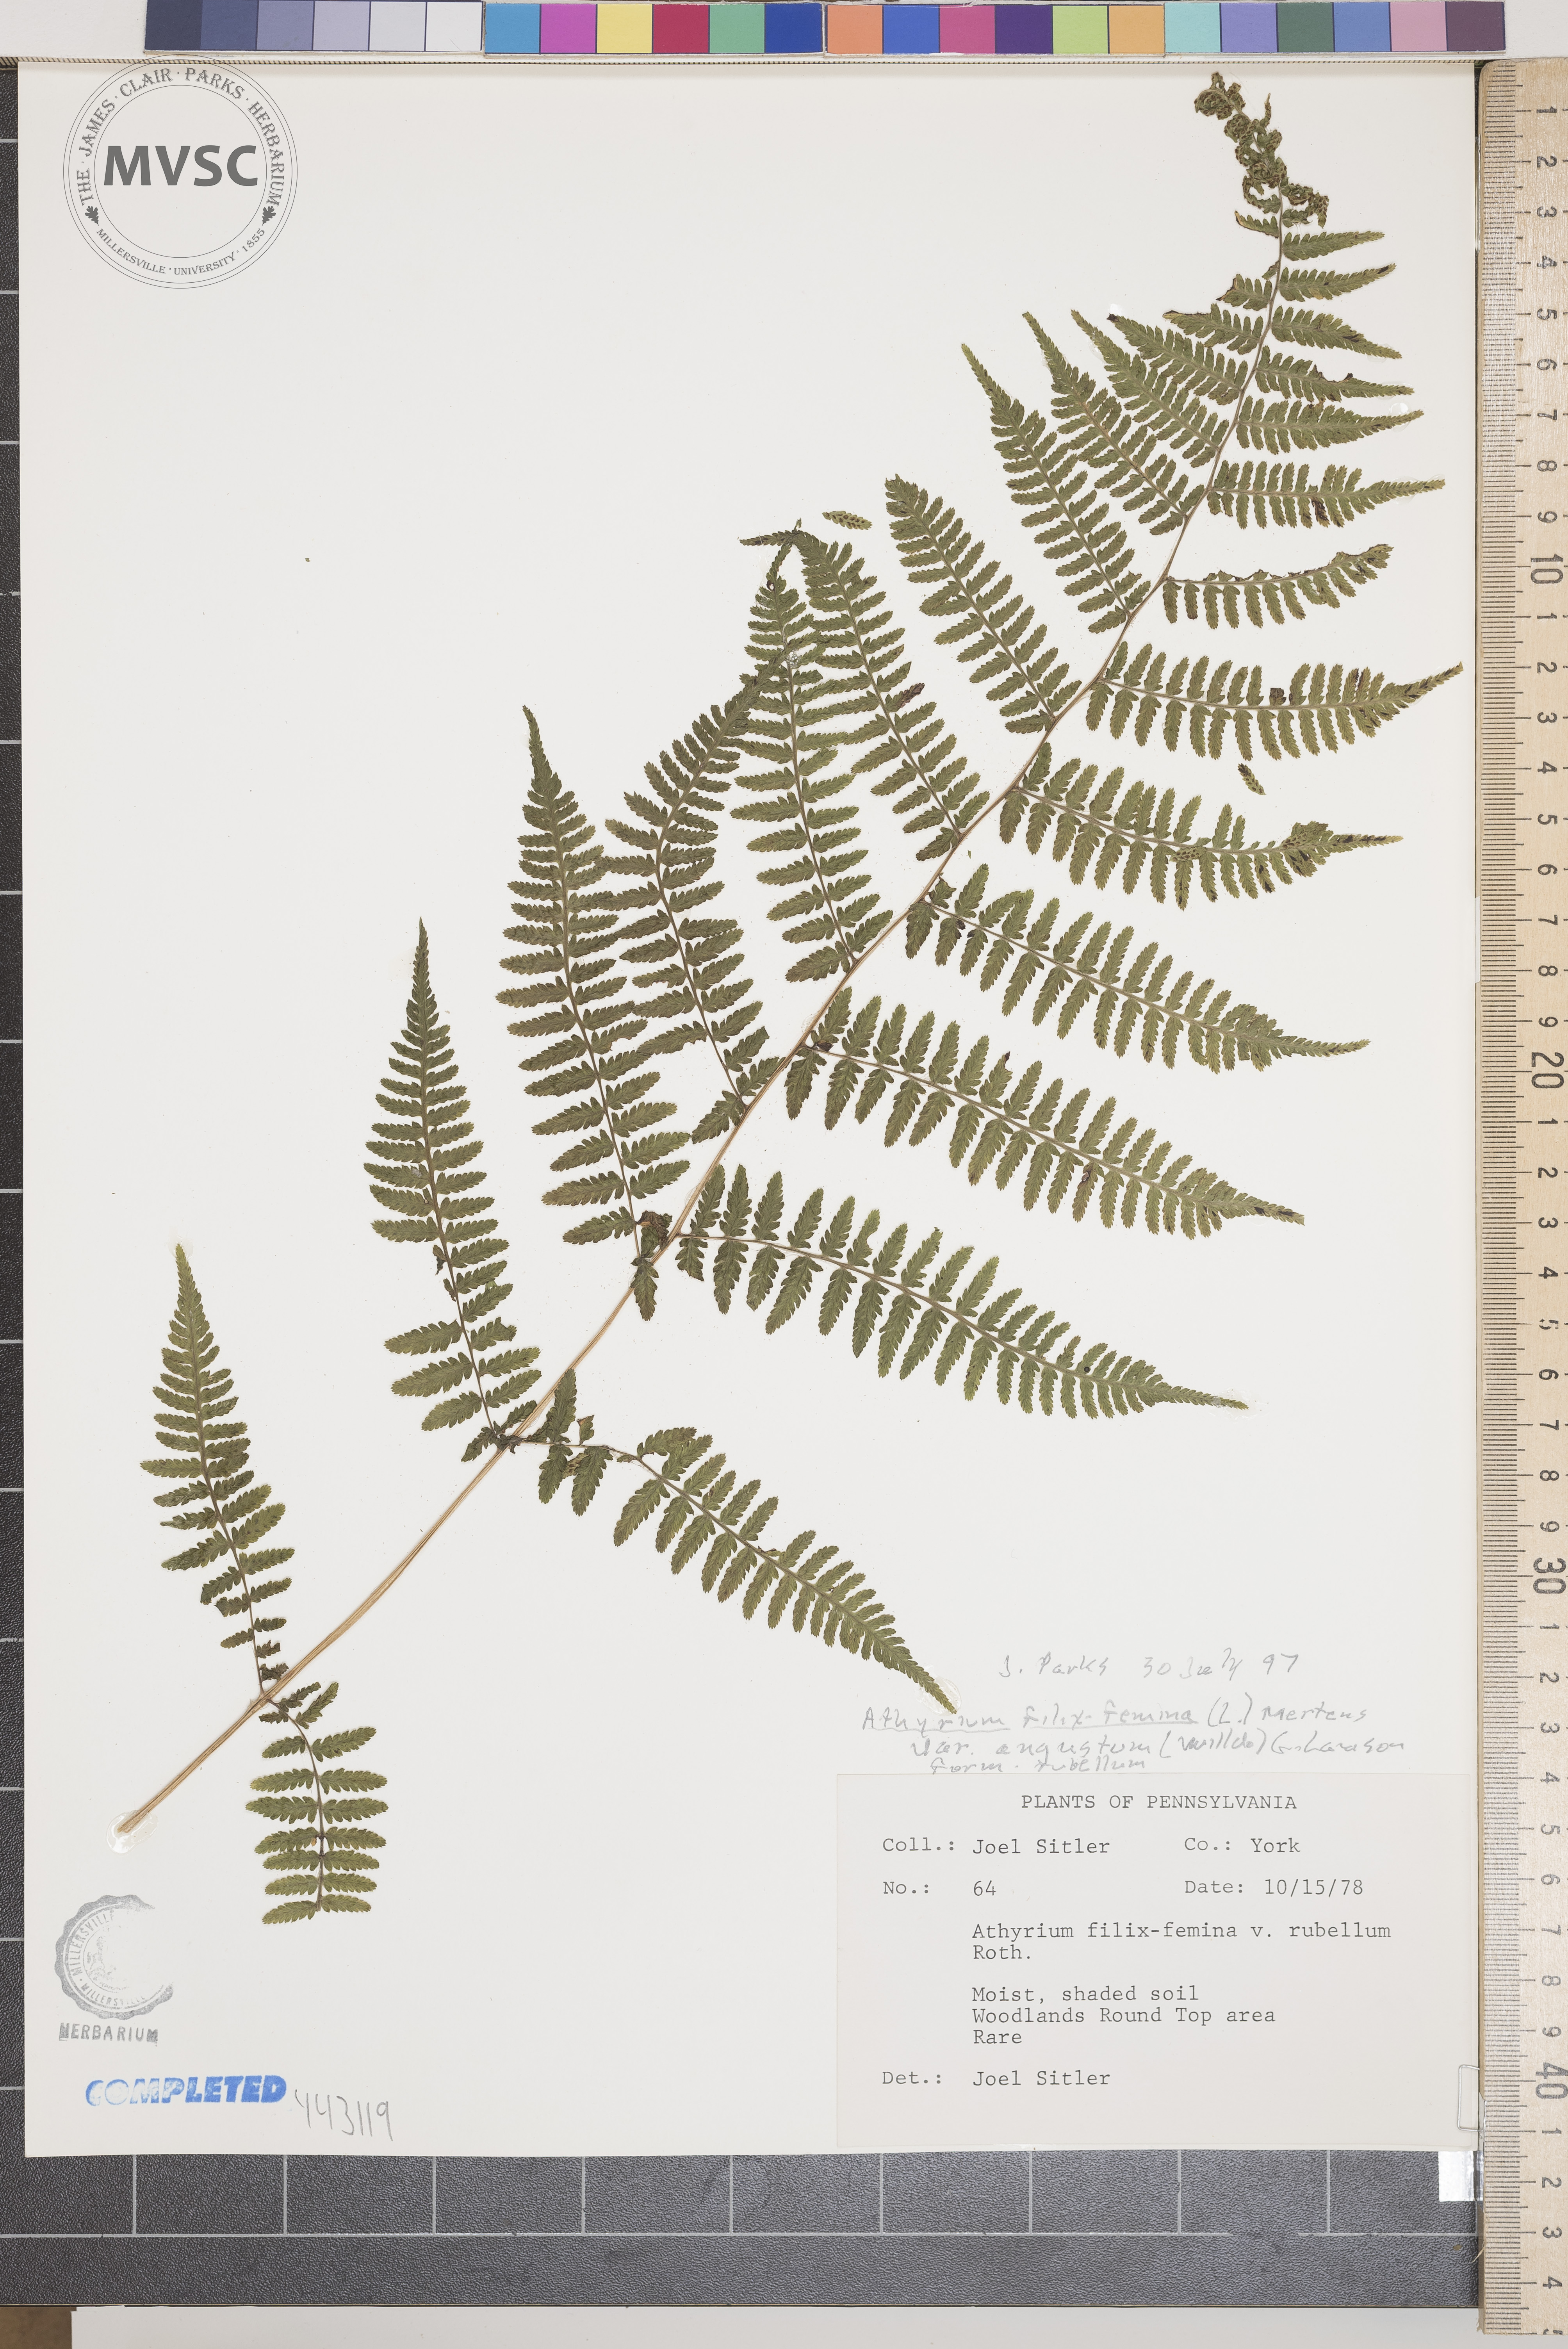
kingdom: Plantae
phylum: Tracheophyta
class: Polypodiopsida
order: Polypodiales
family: Athyriaceae
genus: Athyrium
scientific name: Athyrium filix-femina
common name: Lady fern
